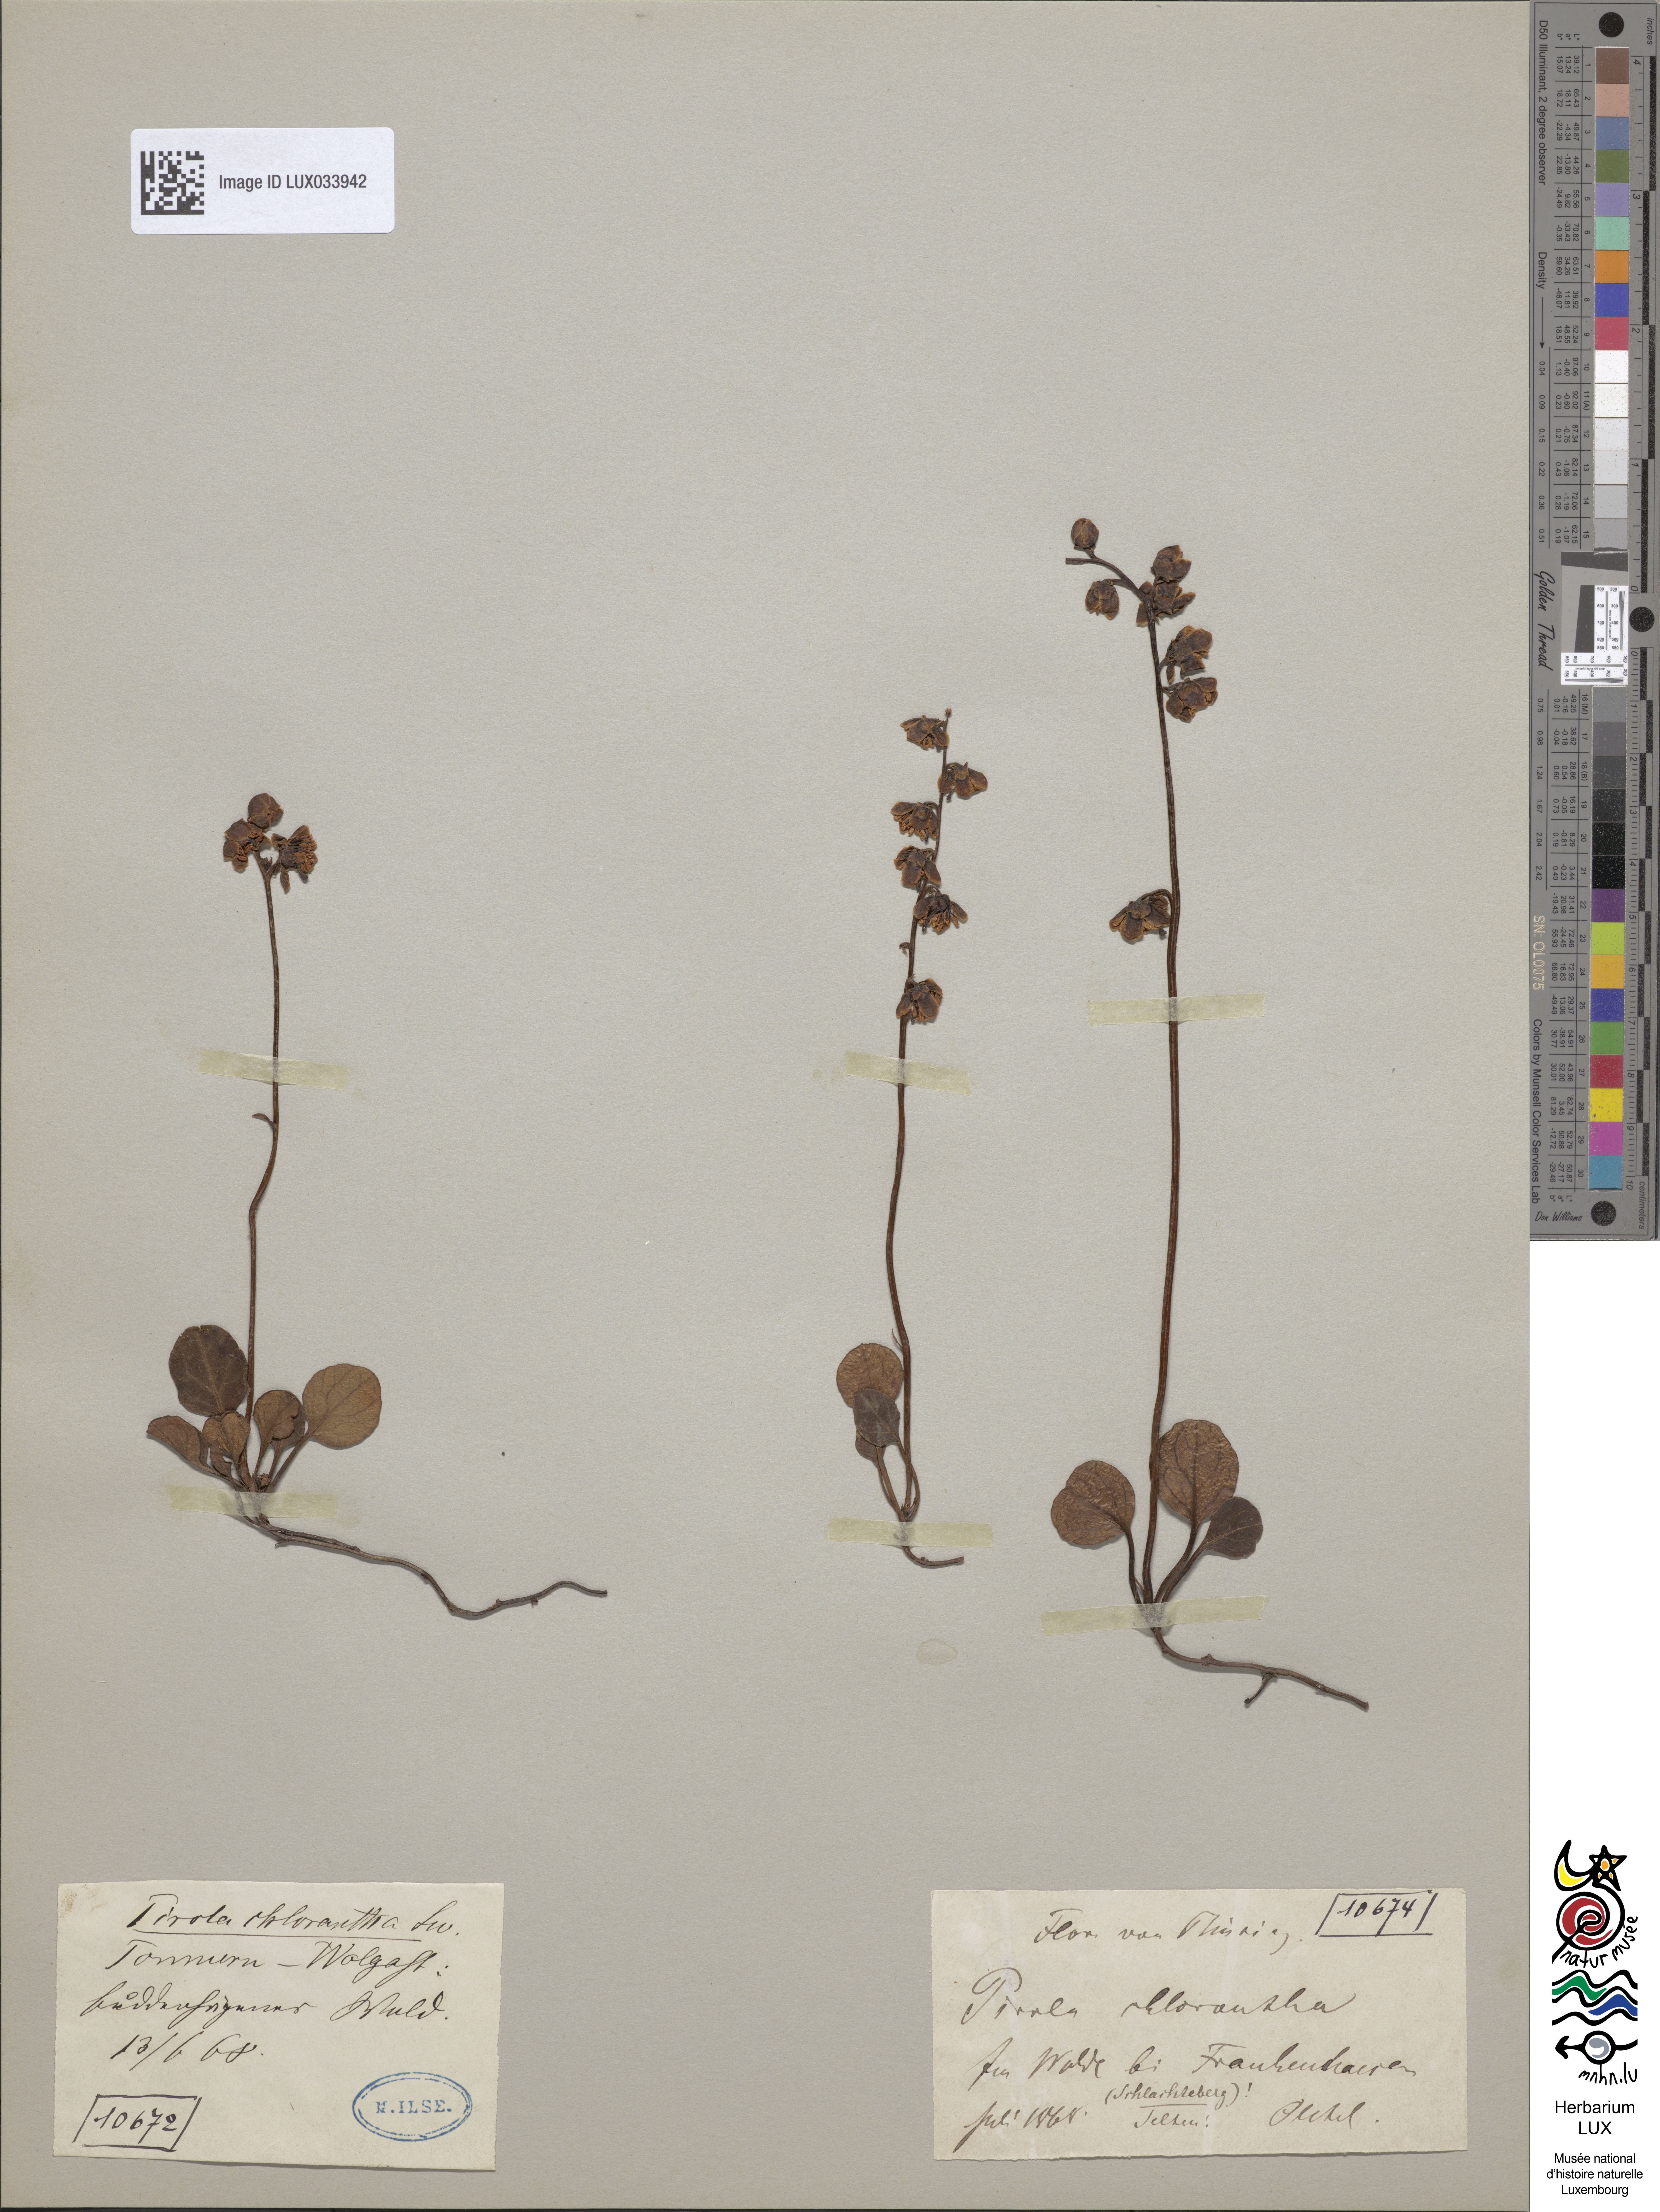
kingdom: Plantae
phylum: Tracheophyta
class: Magnoliopsida
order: Ericales
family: Ericaceae
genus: Pyrola
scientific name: Pyrola chlorantha
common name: Green wintergreen
